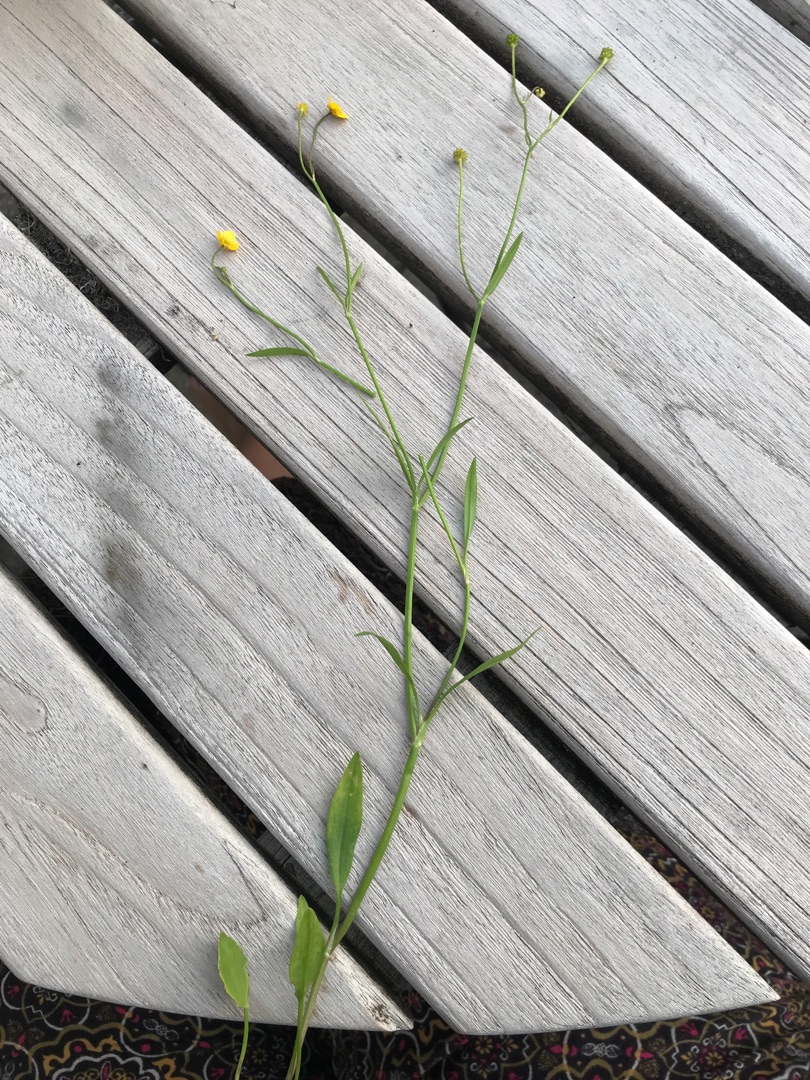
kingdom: Plantae
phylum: Tracheophyta
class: Magnoliopsida
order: Ranunculales
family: Ranunculaceae
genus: Ranunculus
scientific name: Ranunculus flammula
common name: Kær-ranunkel
